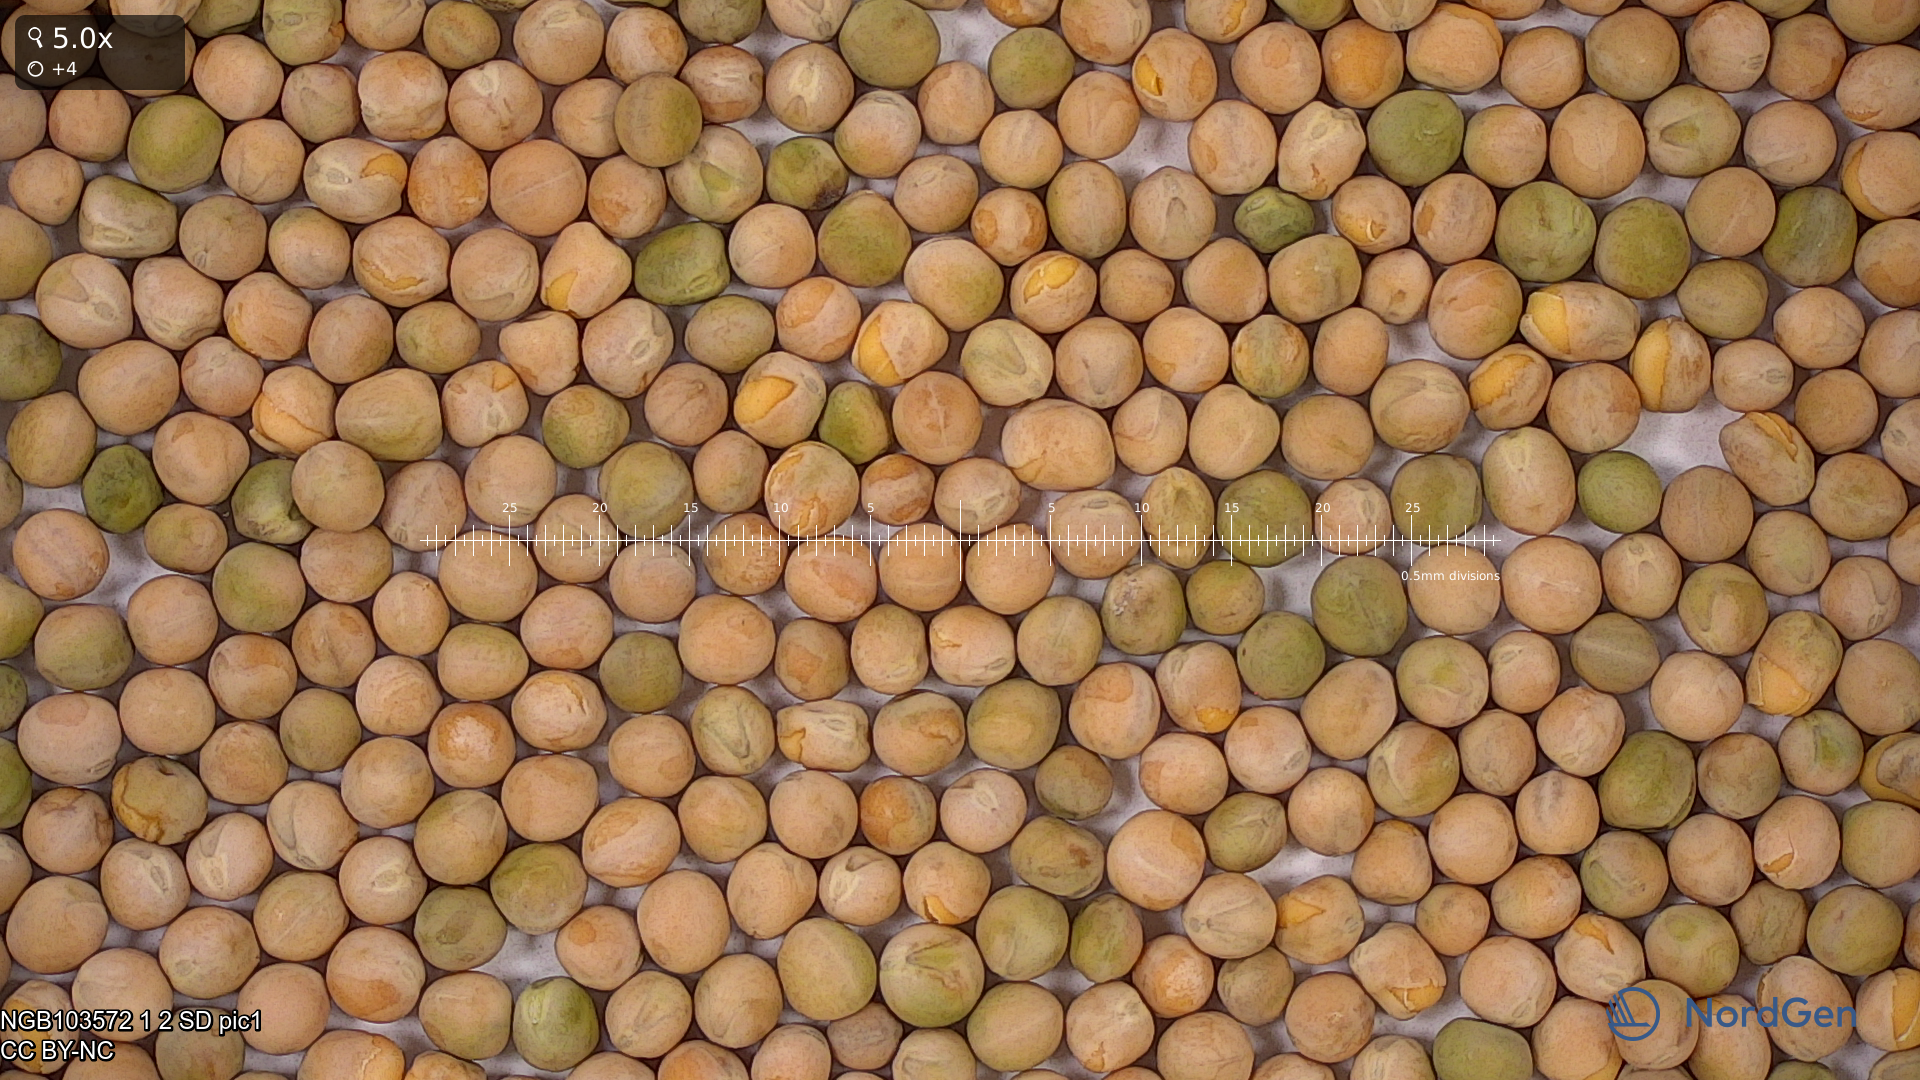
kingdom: Plantae
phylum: Tracheophyta
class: Magnoliopsida
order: Fabales
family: Fabaceae
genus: Lathyrus
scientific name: Lathyrus oleraceus
